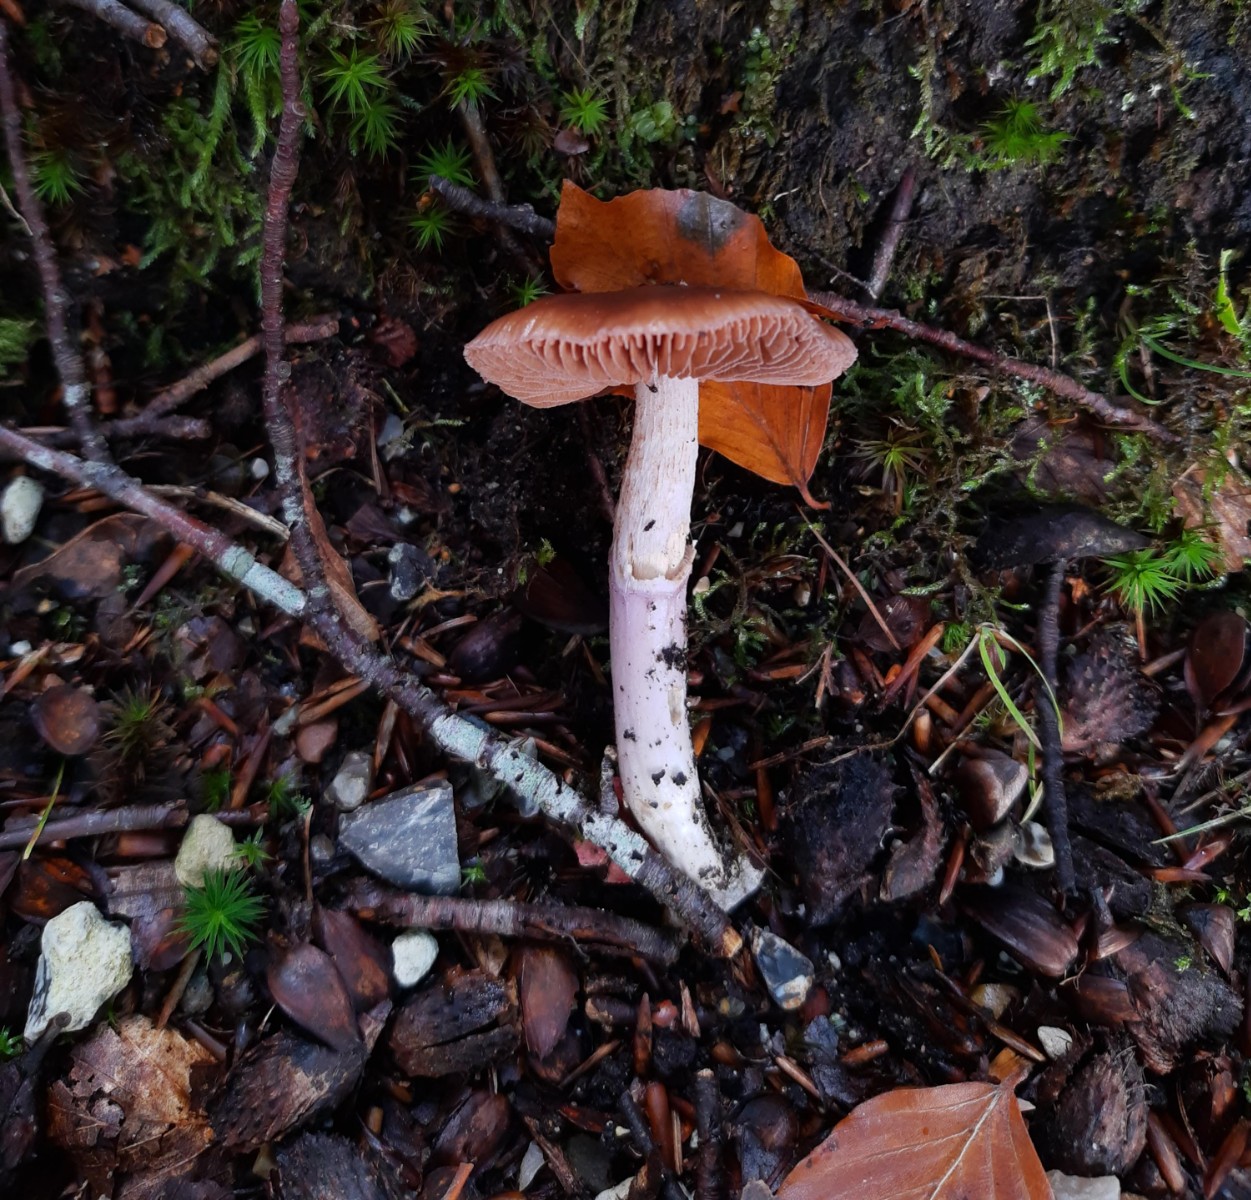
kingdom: Fungi
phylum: Basidiomycota
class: Agaricomycetes
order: Agaricales
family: Cortinariaceae
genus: Cortinarius
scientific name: Cortinarius
